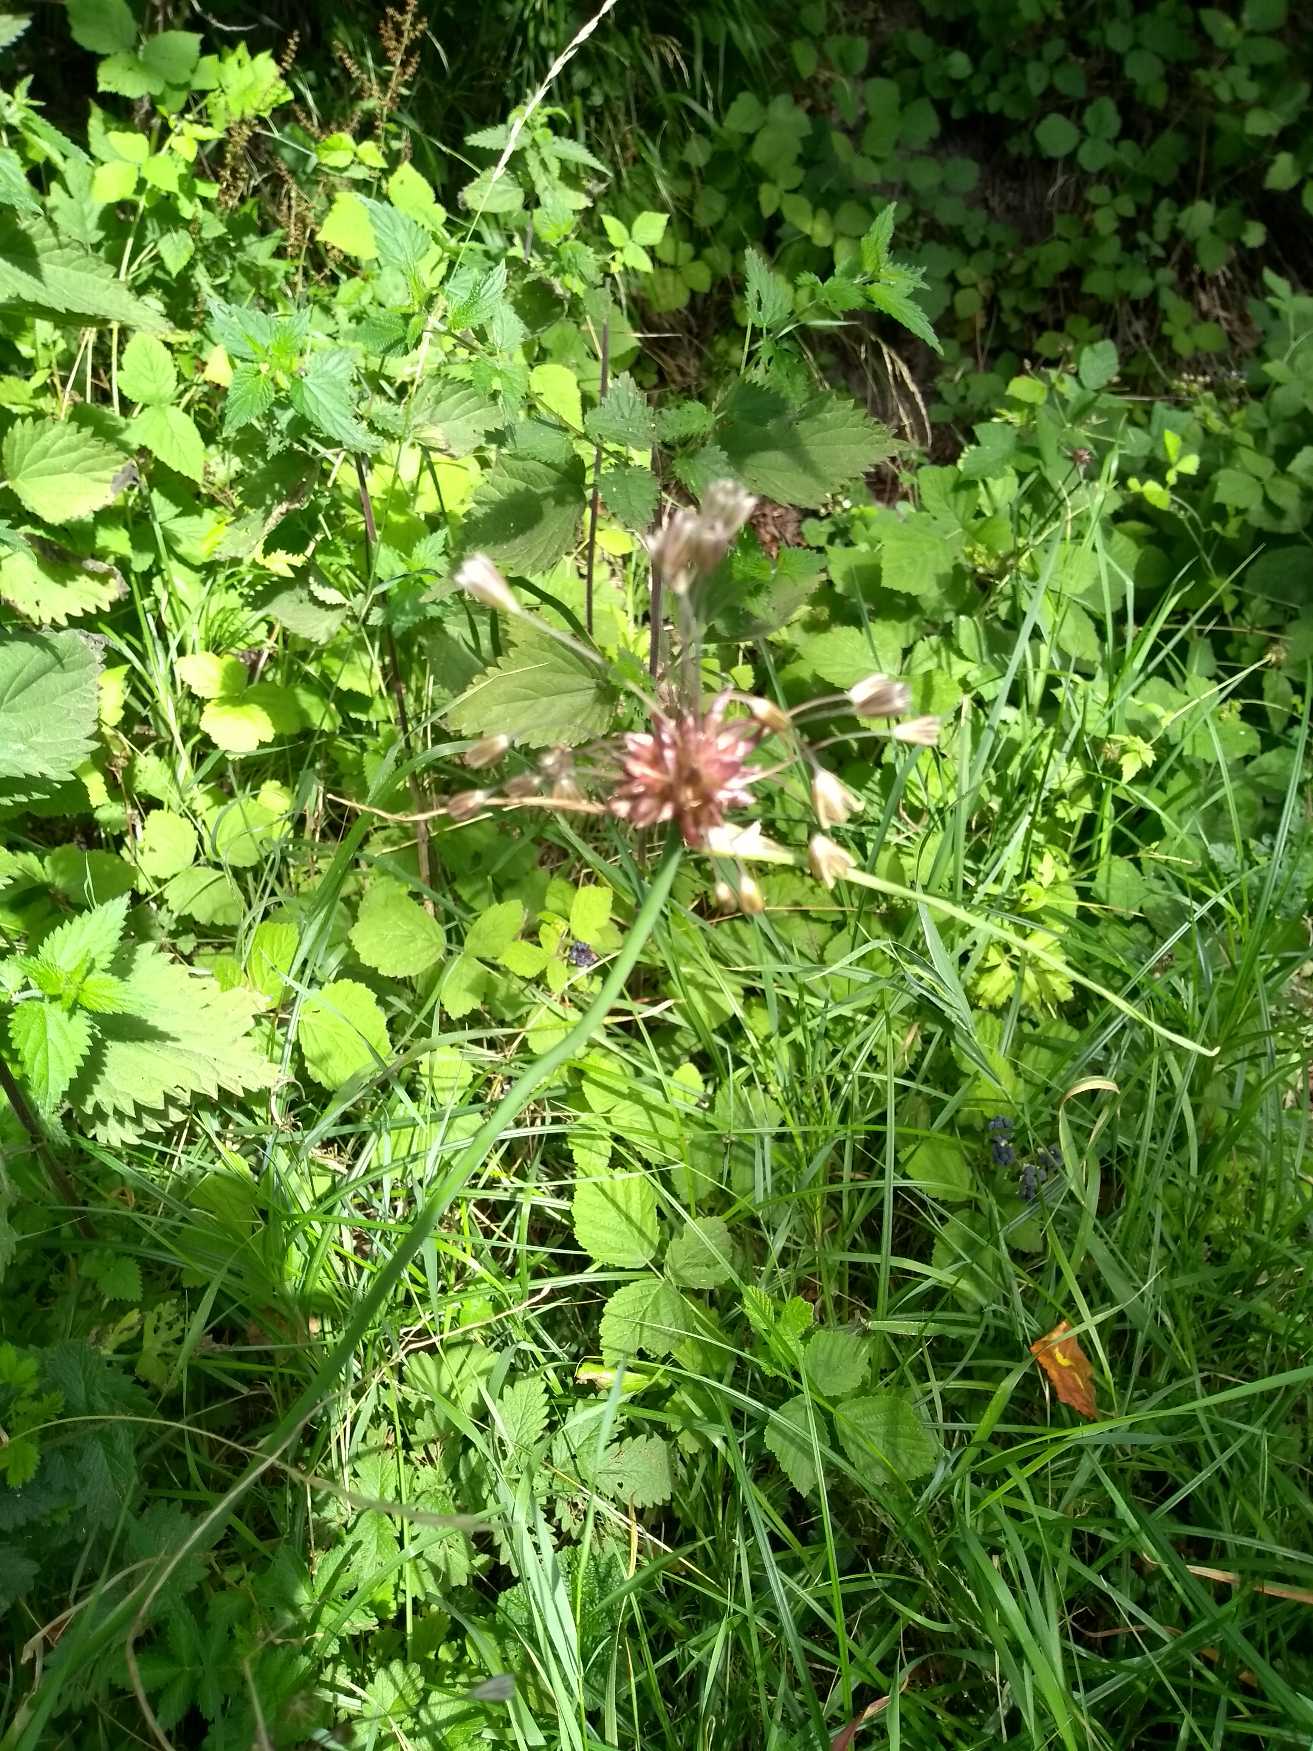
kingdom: Plantae
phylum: Tracheophyta
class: Liliopsida
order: Asparagales
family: Amaryllidaceae
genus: Allium
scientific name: Allium oleraceum
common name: Vild løg
